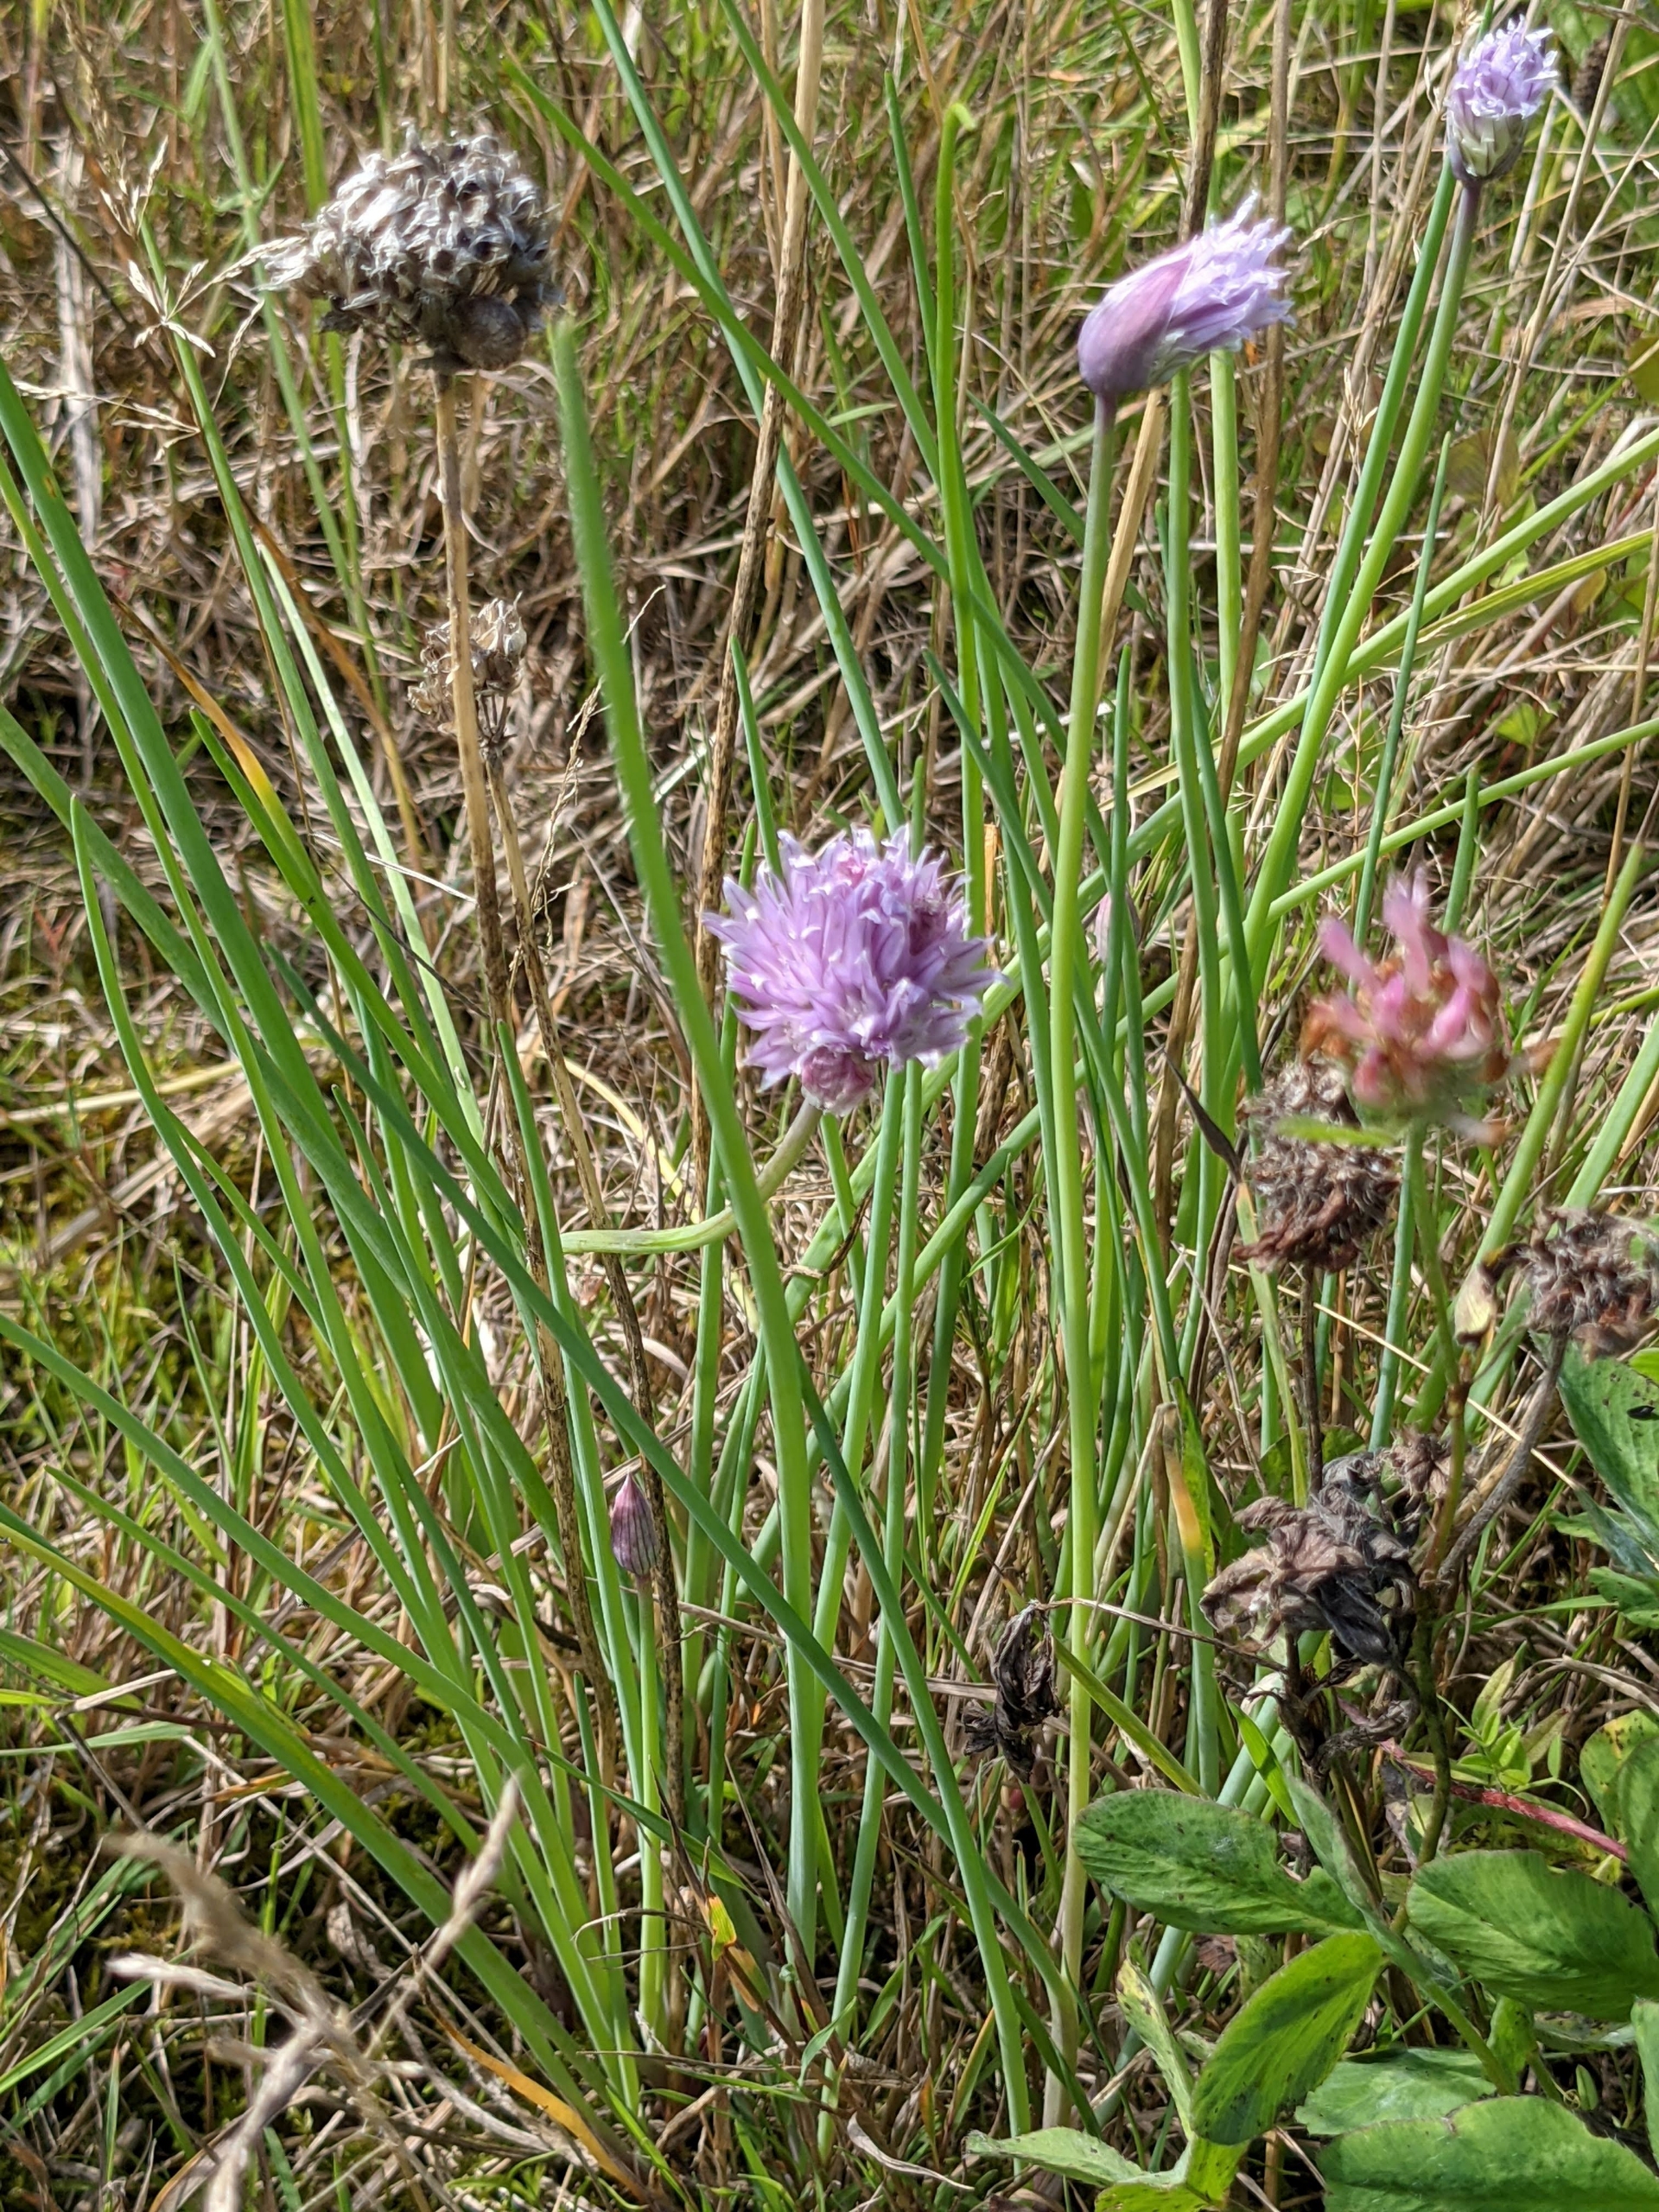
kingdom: Plantae
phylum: Tracheophyta
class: Liliopsida
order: Asparagales
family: Amaryllidaceae
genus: Allium
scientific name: Allium schoenoprasum
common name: Pur-løg
